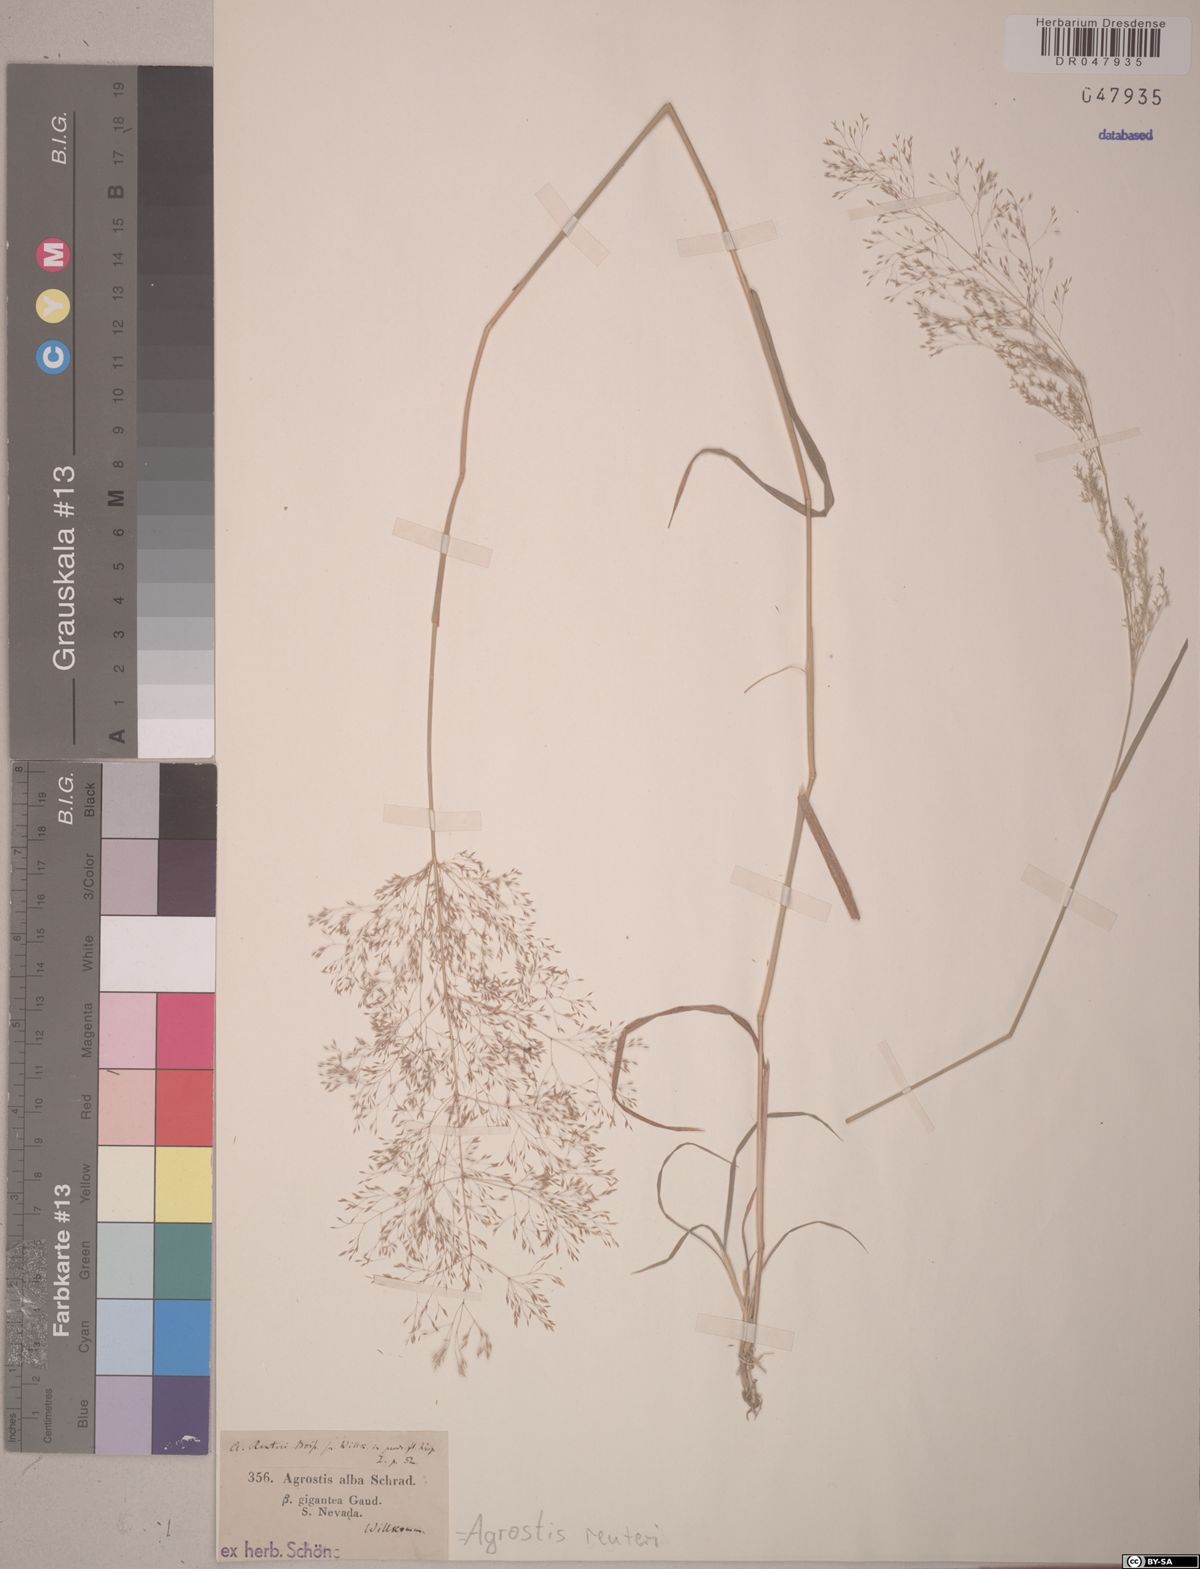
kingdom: Plantae
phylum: Tracheophyta
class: Liliopsida
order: Poales
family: Poaceae
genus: Agrostis
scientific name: Agrostis reuteri
